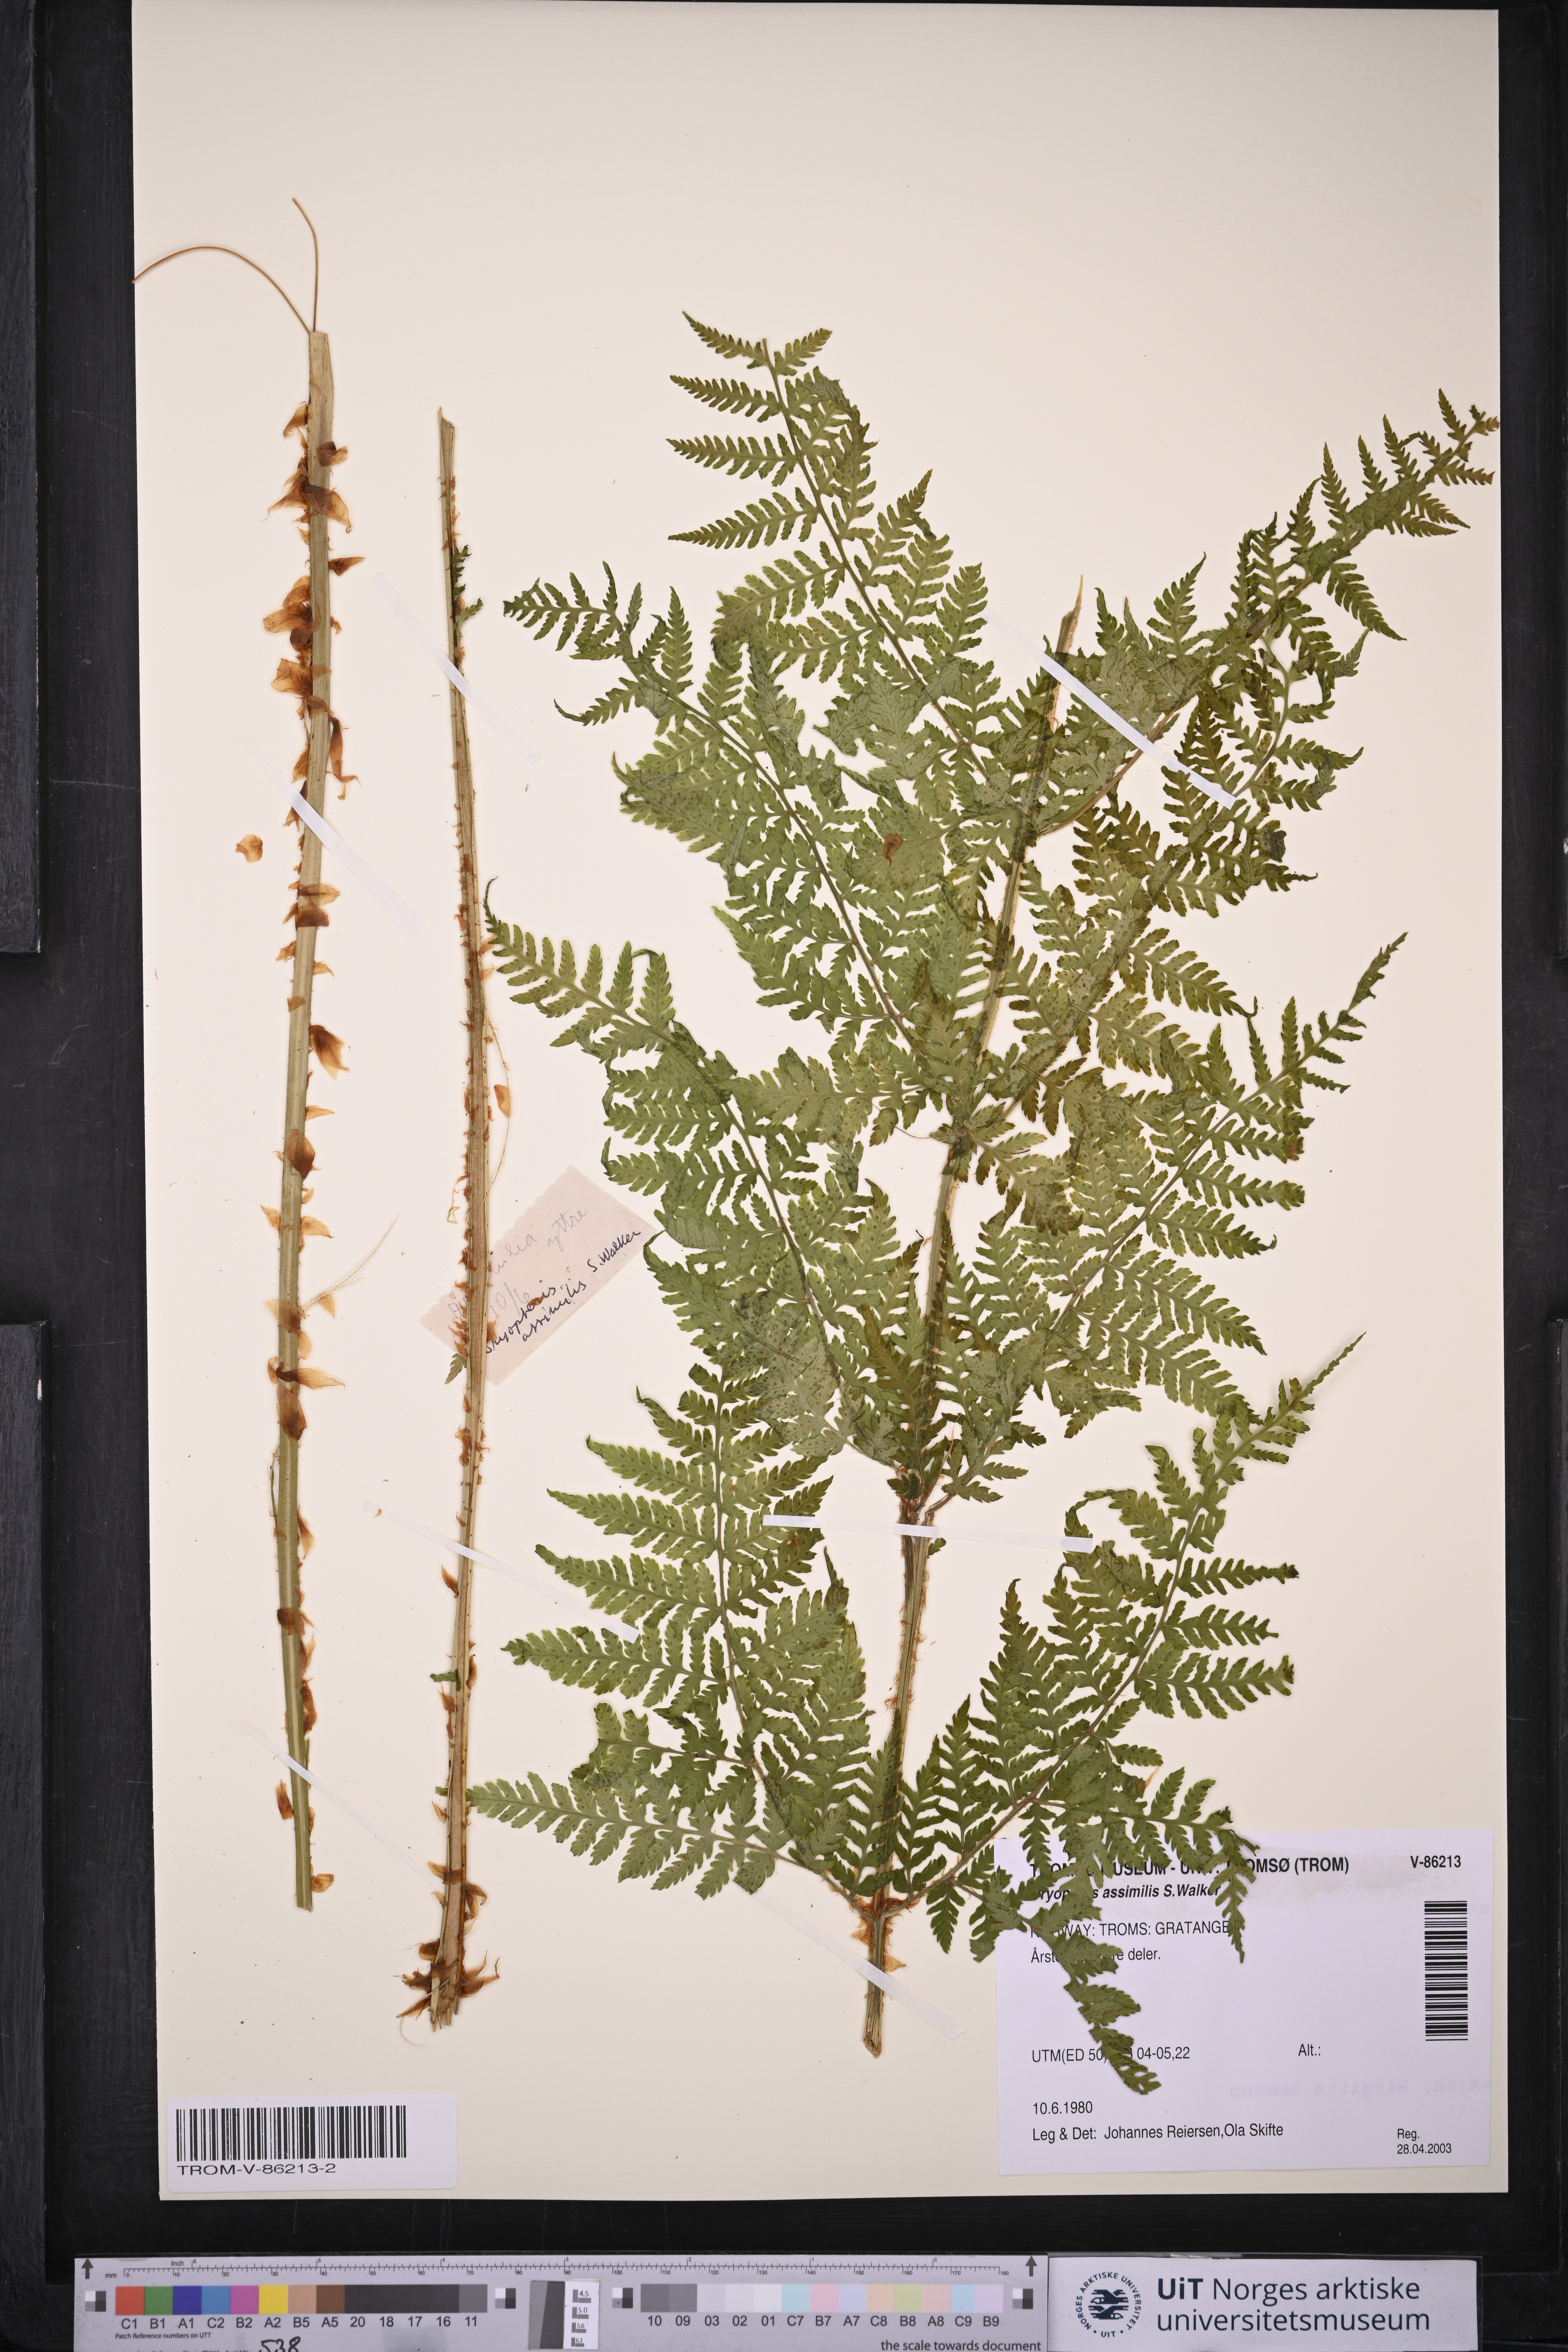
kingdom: Plantae
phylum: Tracheophyta
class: Polypodiopsida
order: Polypodiales
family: Dryopteridaceae
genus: Dryopteris
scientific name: Dryopteris expansa
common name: Northern buckler fern
